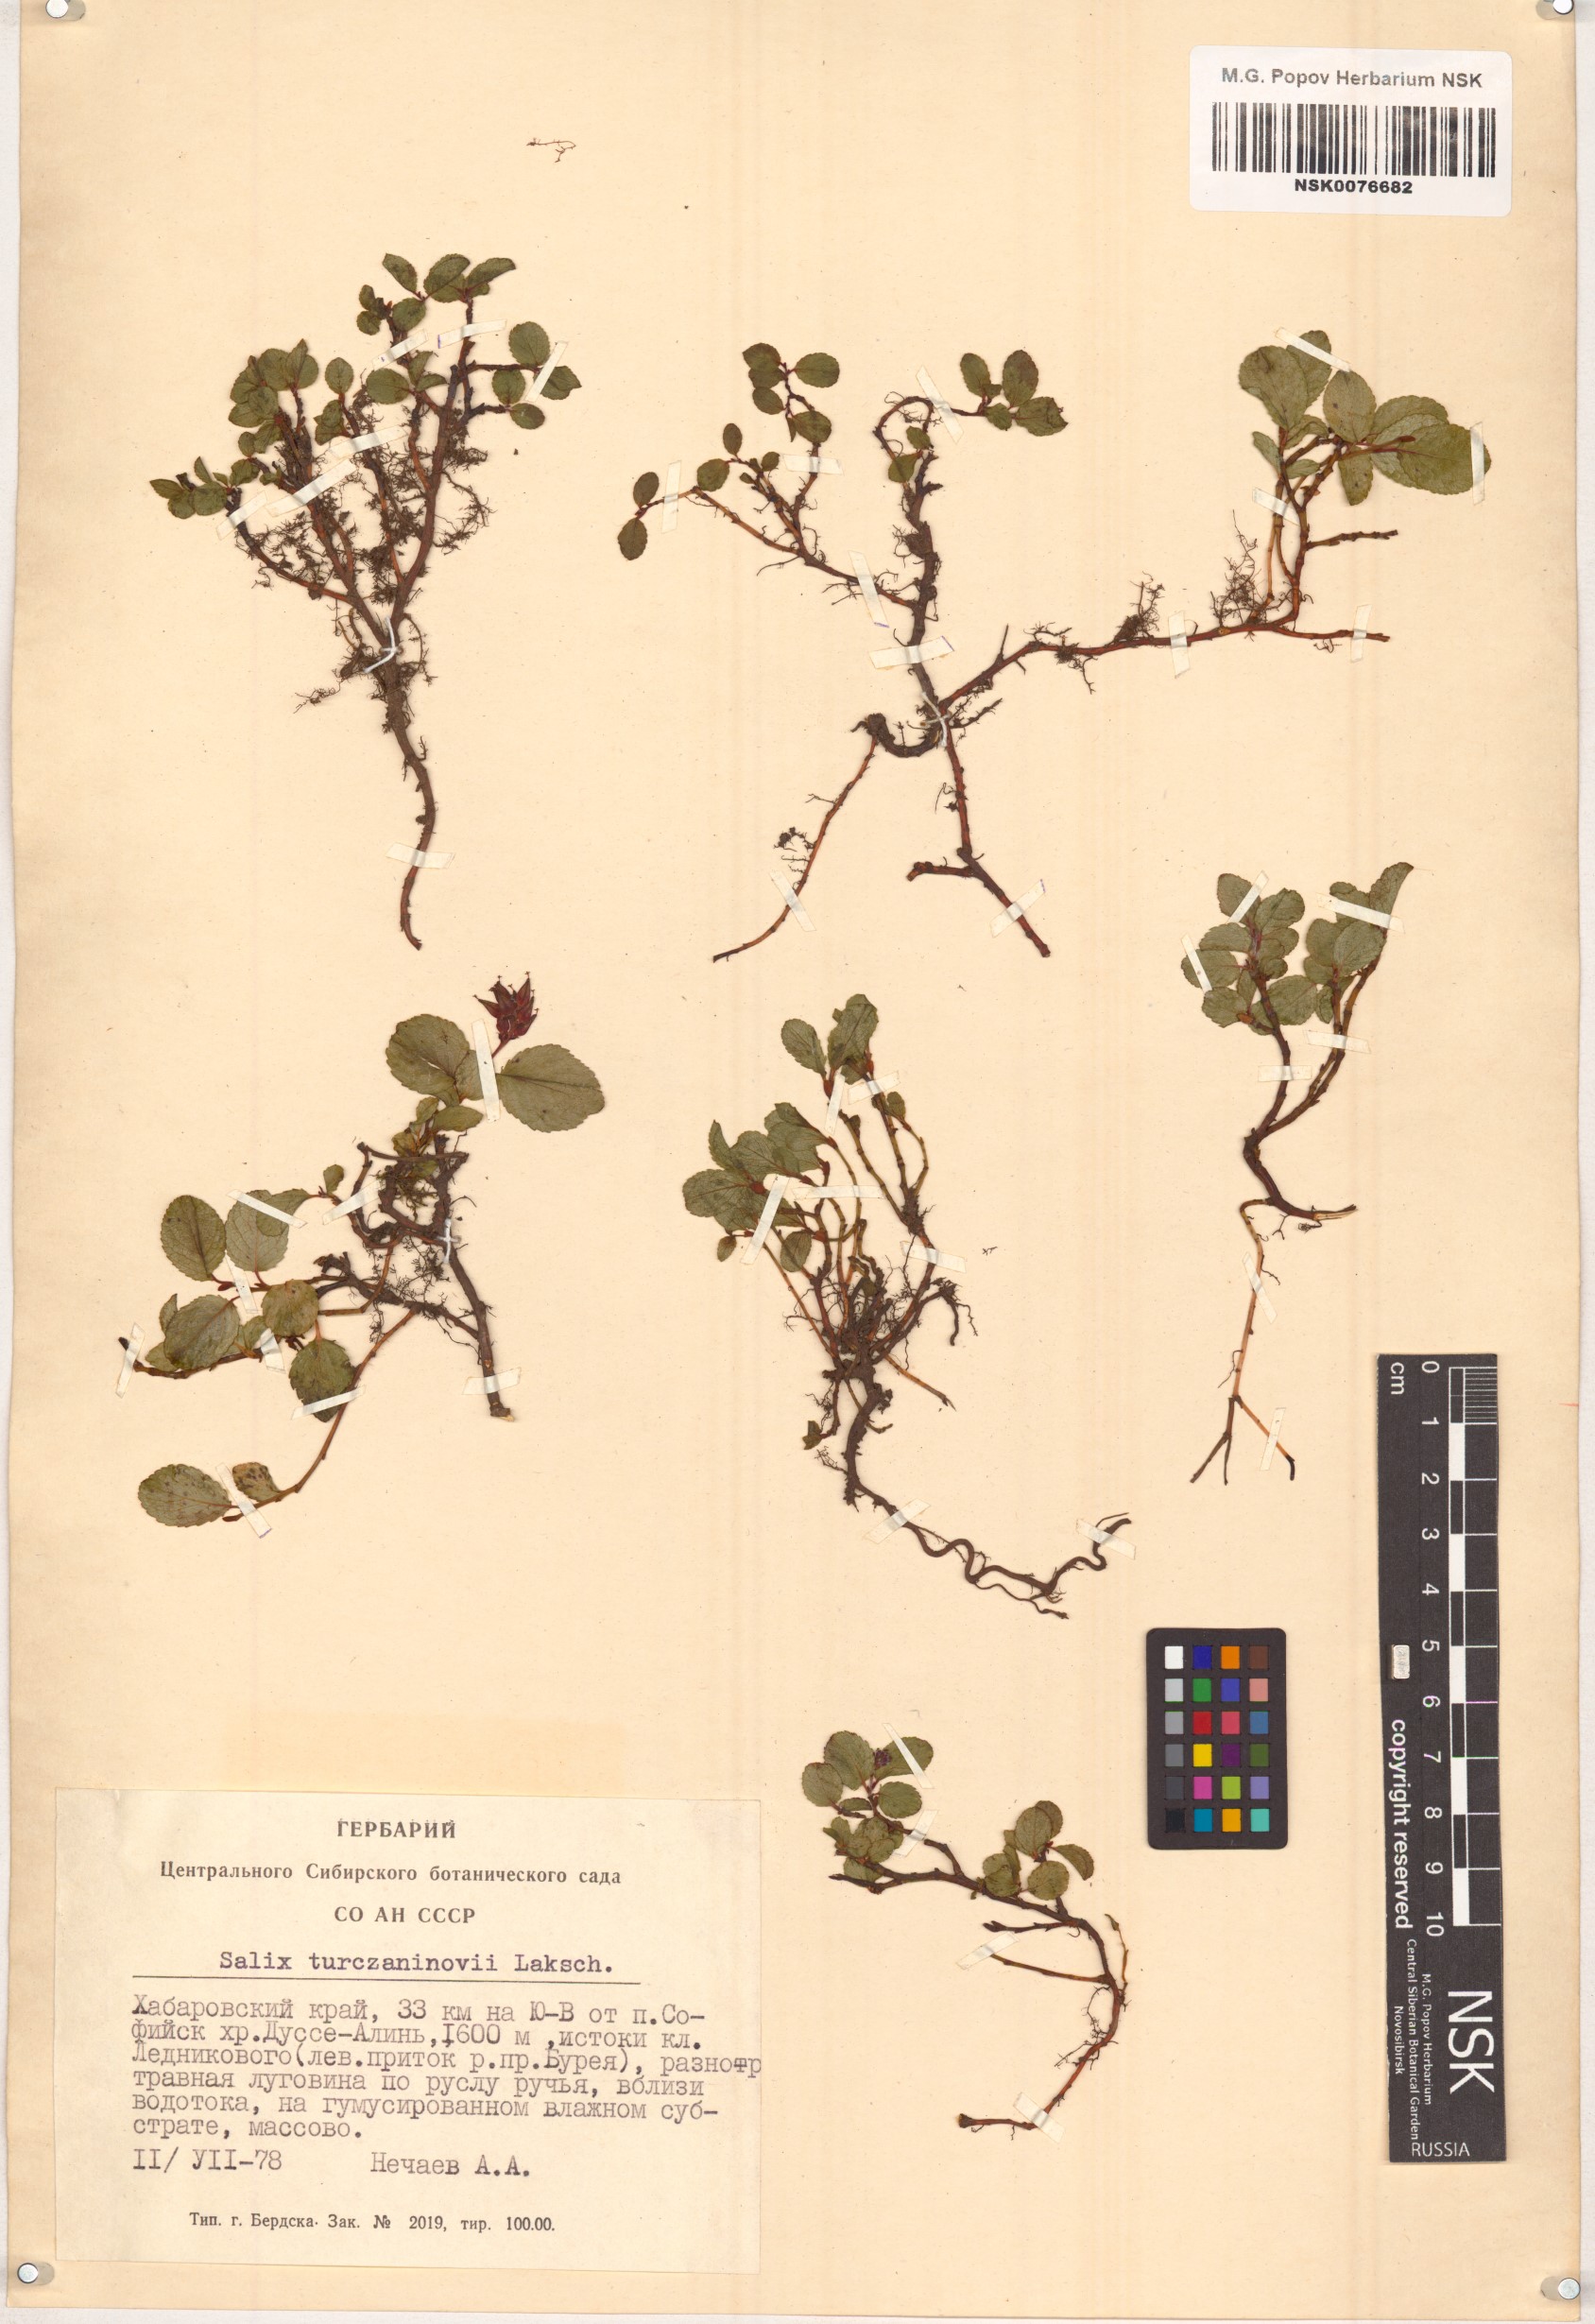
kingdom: Plantae
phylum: Tracheophyta
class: Magnoliopsida
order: Malpighiales
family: Salicaceae
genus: Salix
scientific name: Salix turczaninowii
